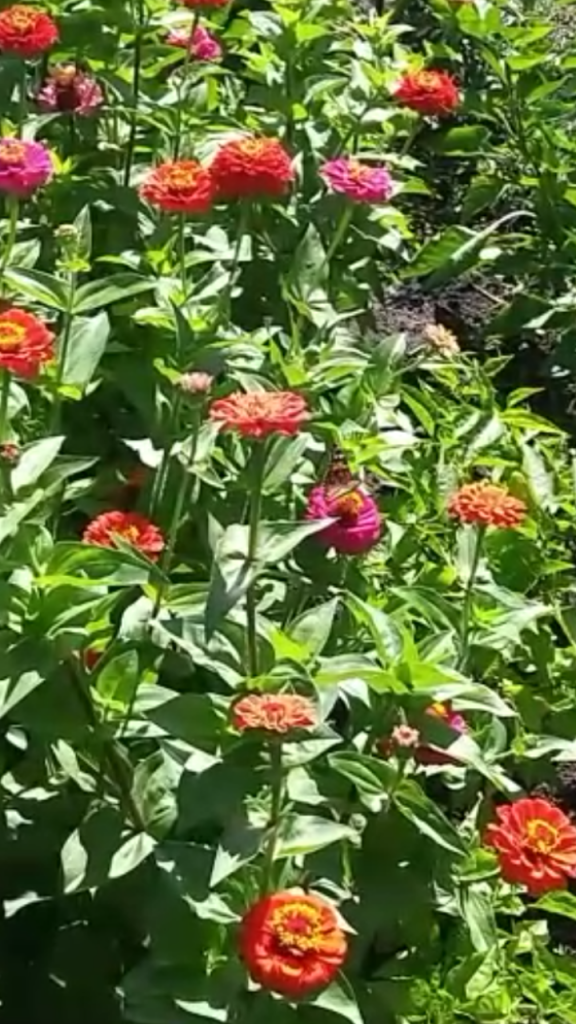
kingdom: Animalia
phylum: Arthropoda
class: Insecta
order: Lepidoptera
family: Nymphalidae
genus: Vanessa
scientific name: Vanessa cardui
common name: Painted Lady
